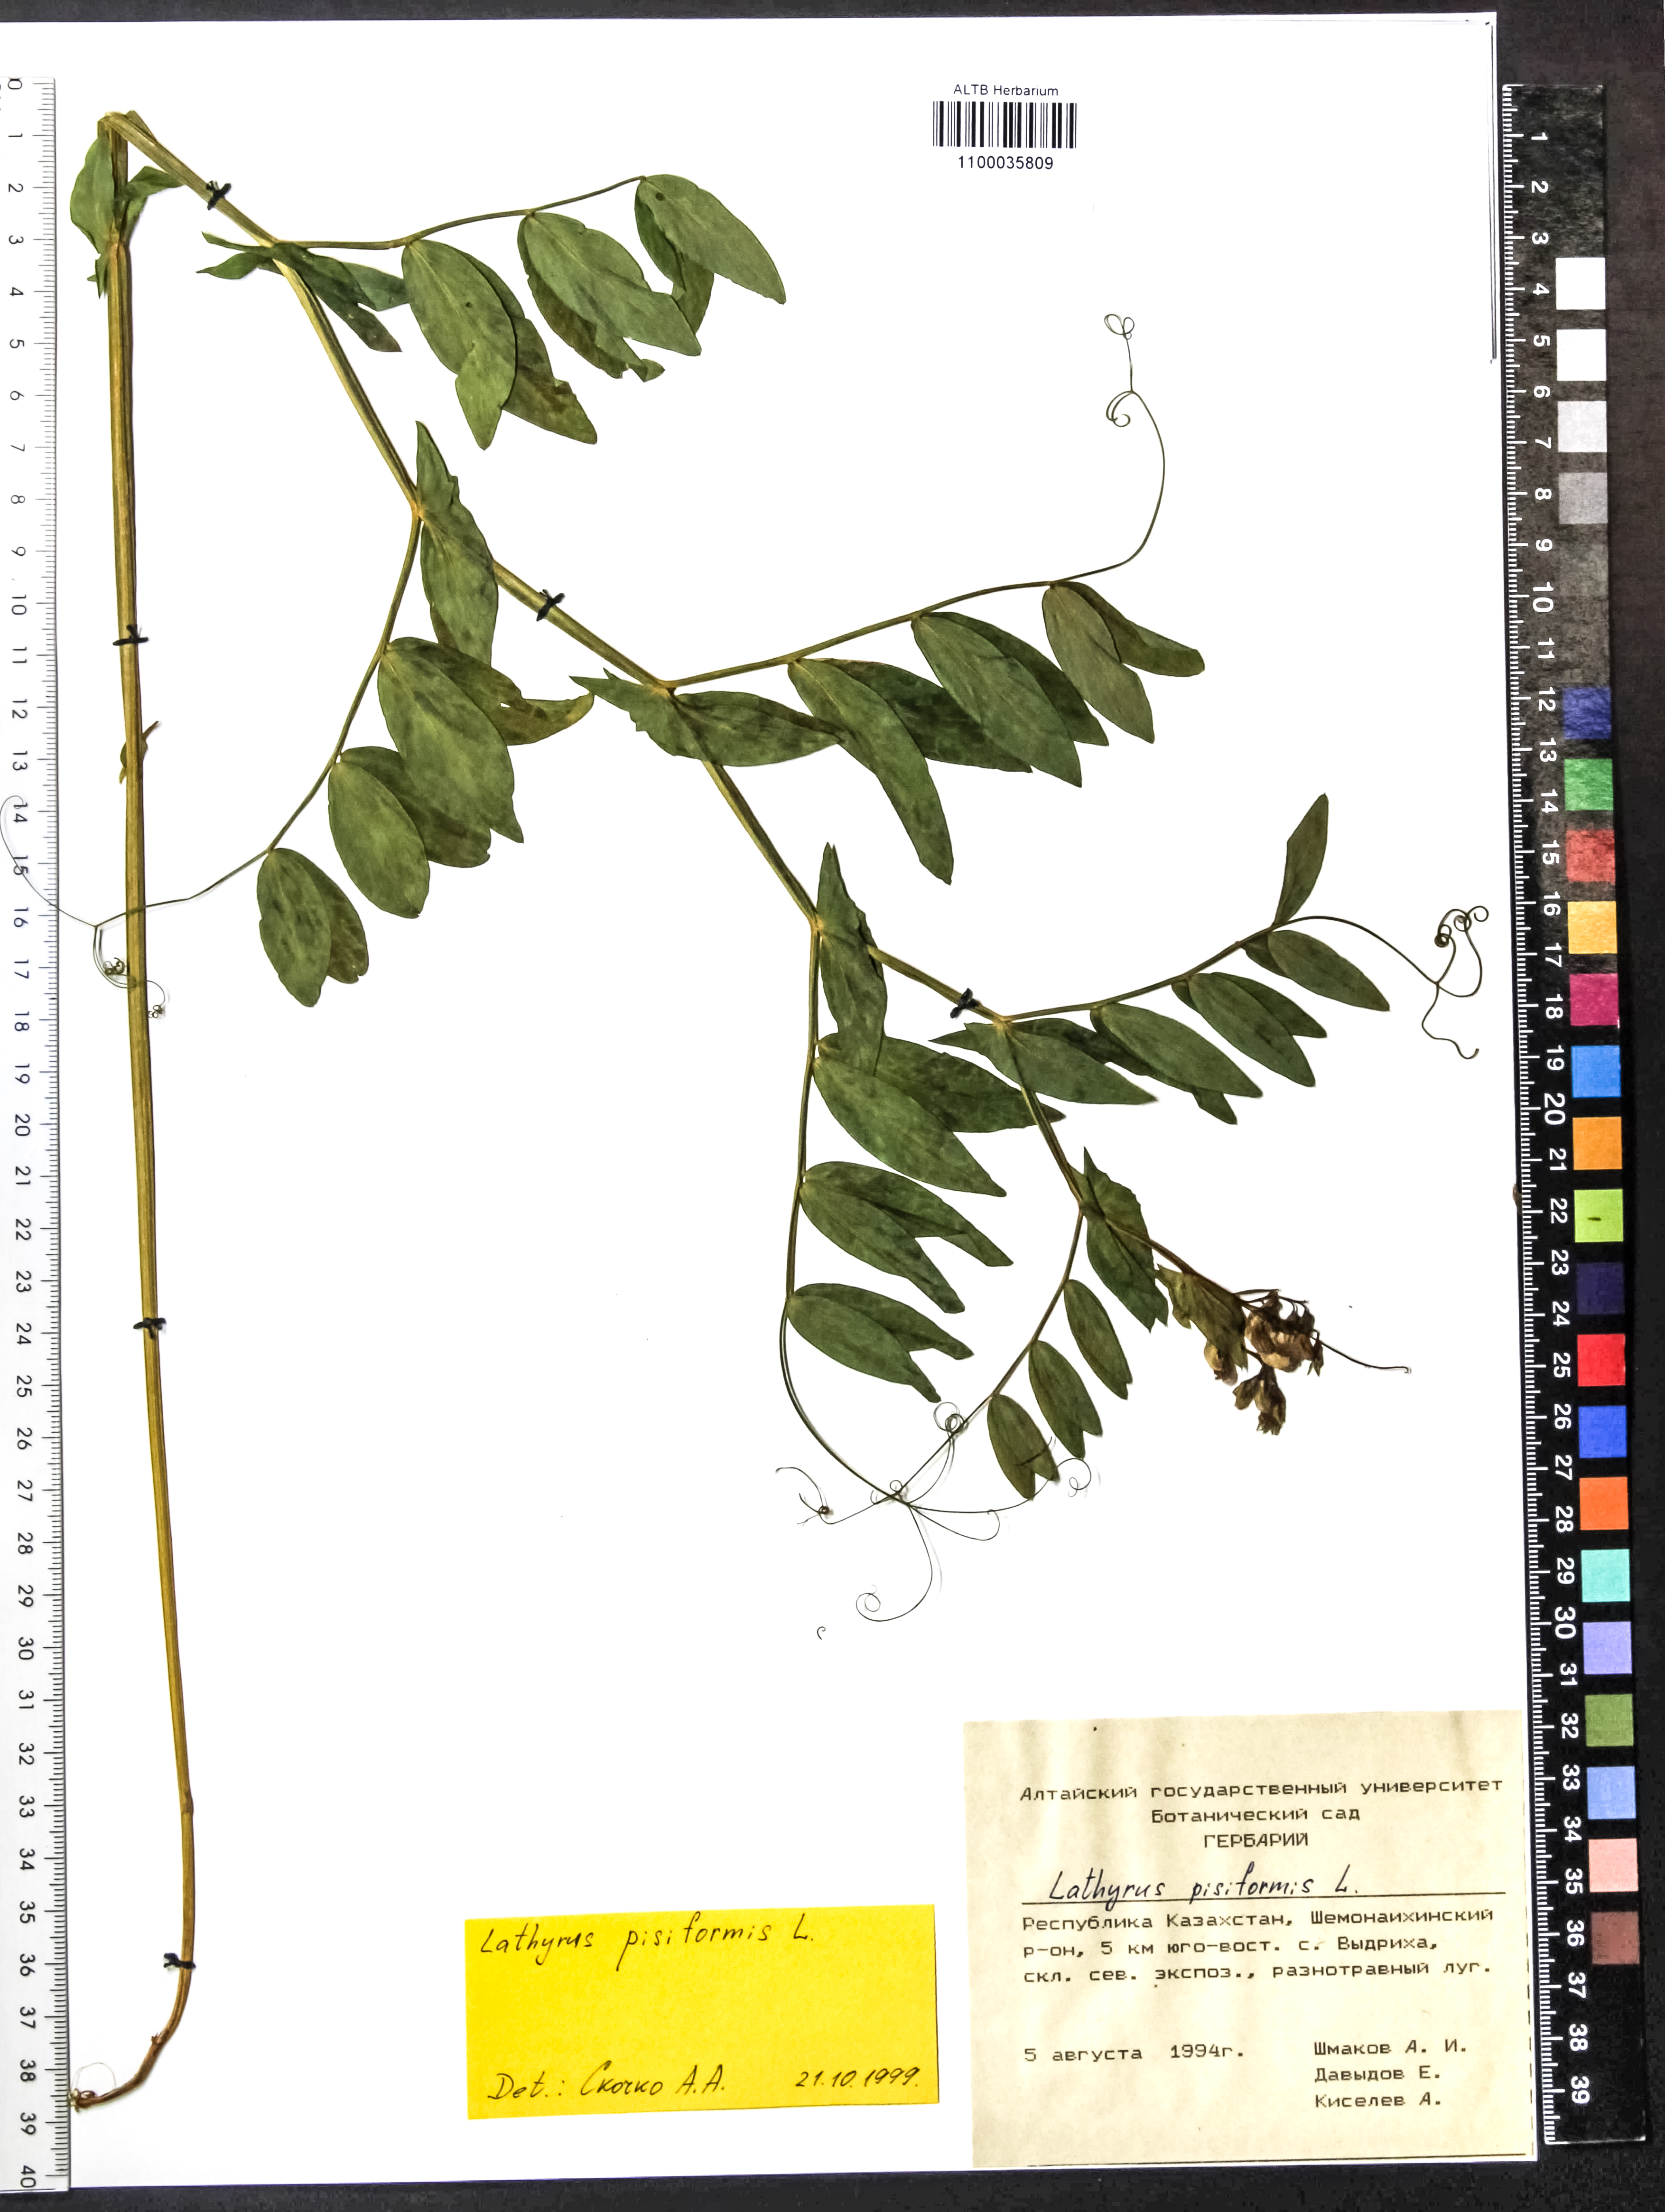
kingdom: Plantae
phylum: Tracheophyta
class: Magnoliopsida
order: Fabales
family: Fabaceae
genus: Lathyrus
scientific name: Lathyrus pisiformis
